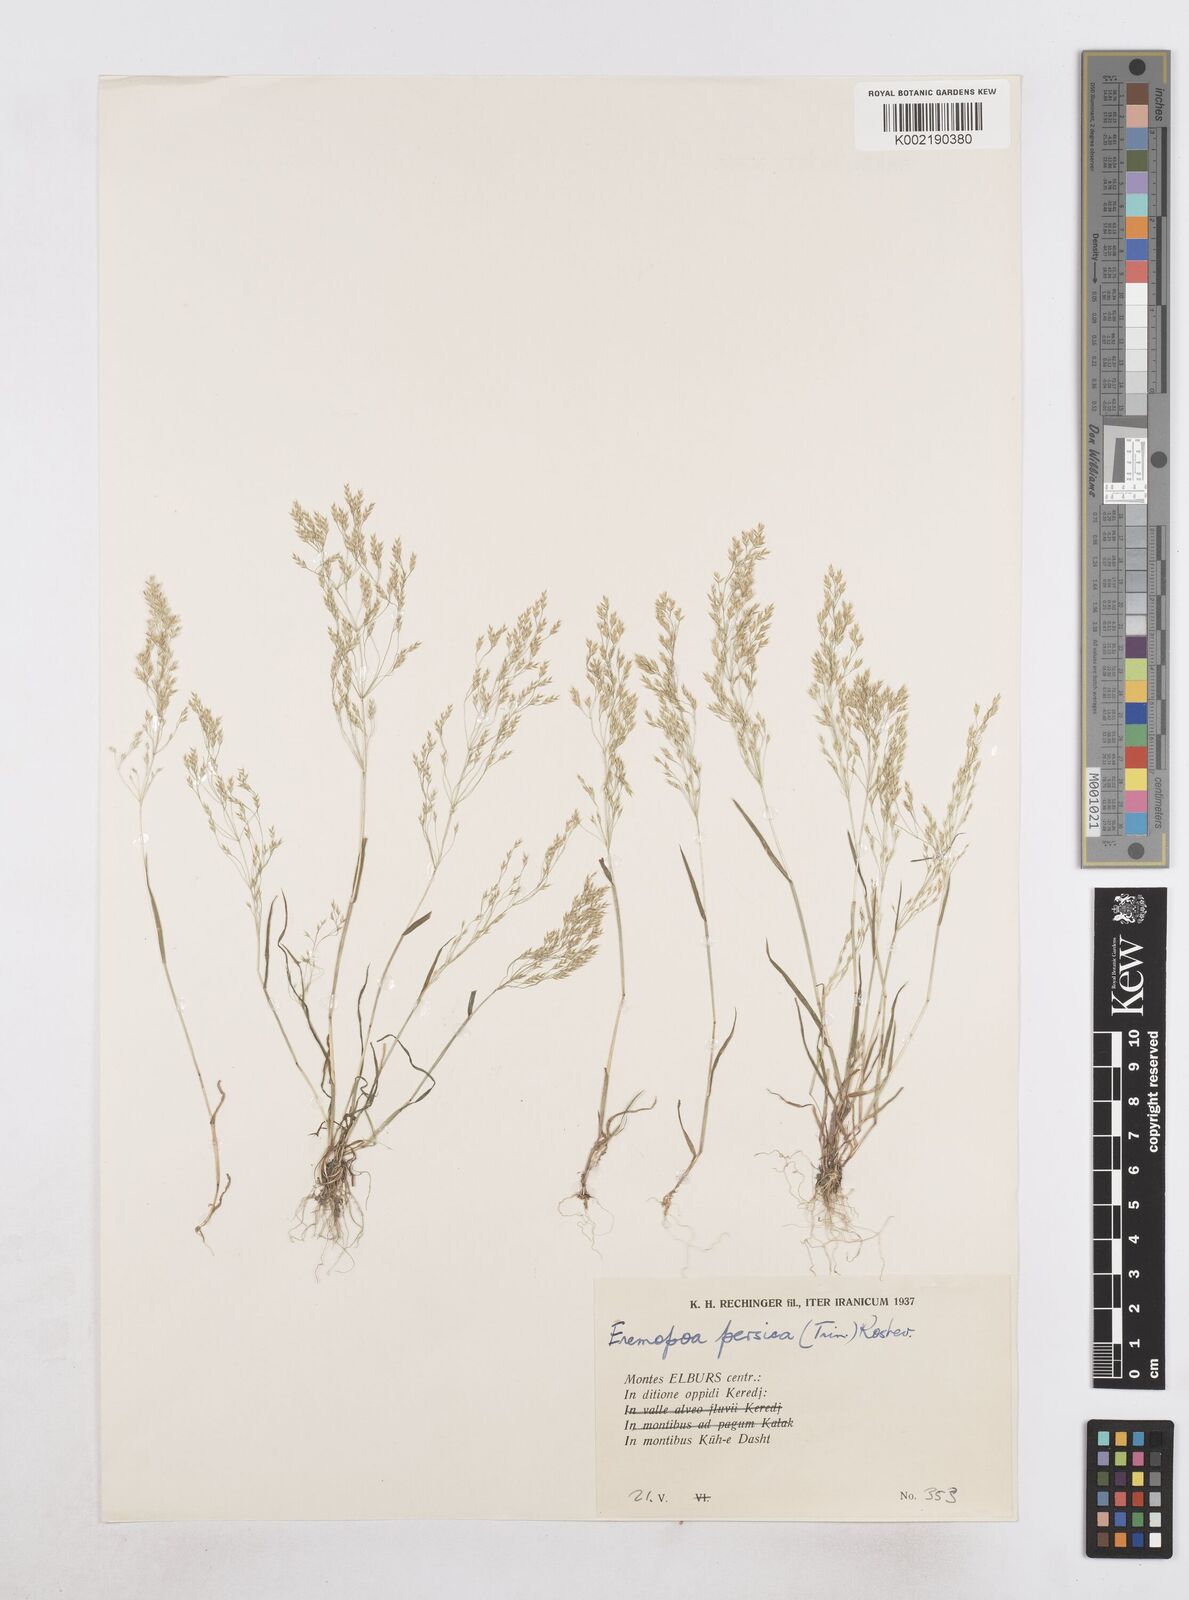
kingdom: Plantae
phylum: Tracheophyta
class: Liliopsida
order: Poales
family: Poaceae
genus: Poa
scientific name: Poa persica
